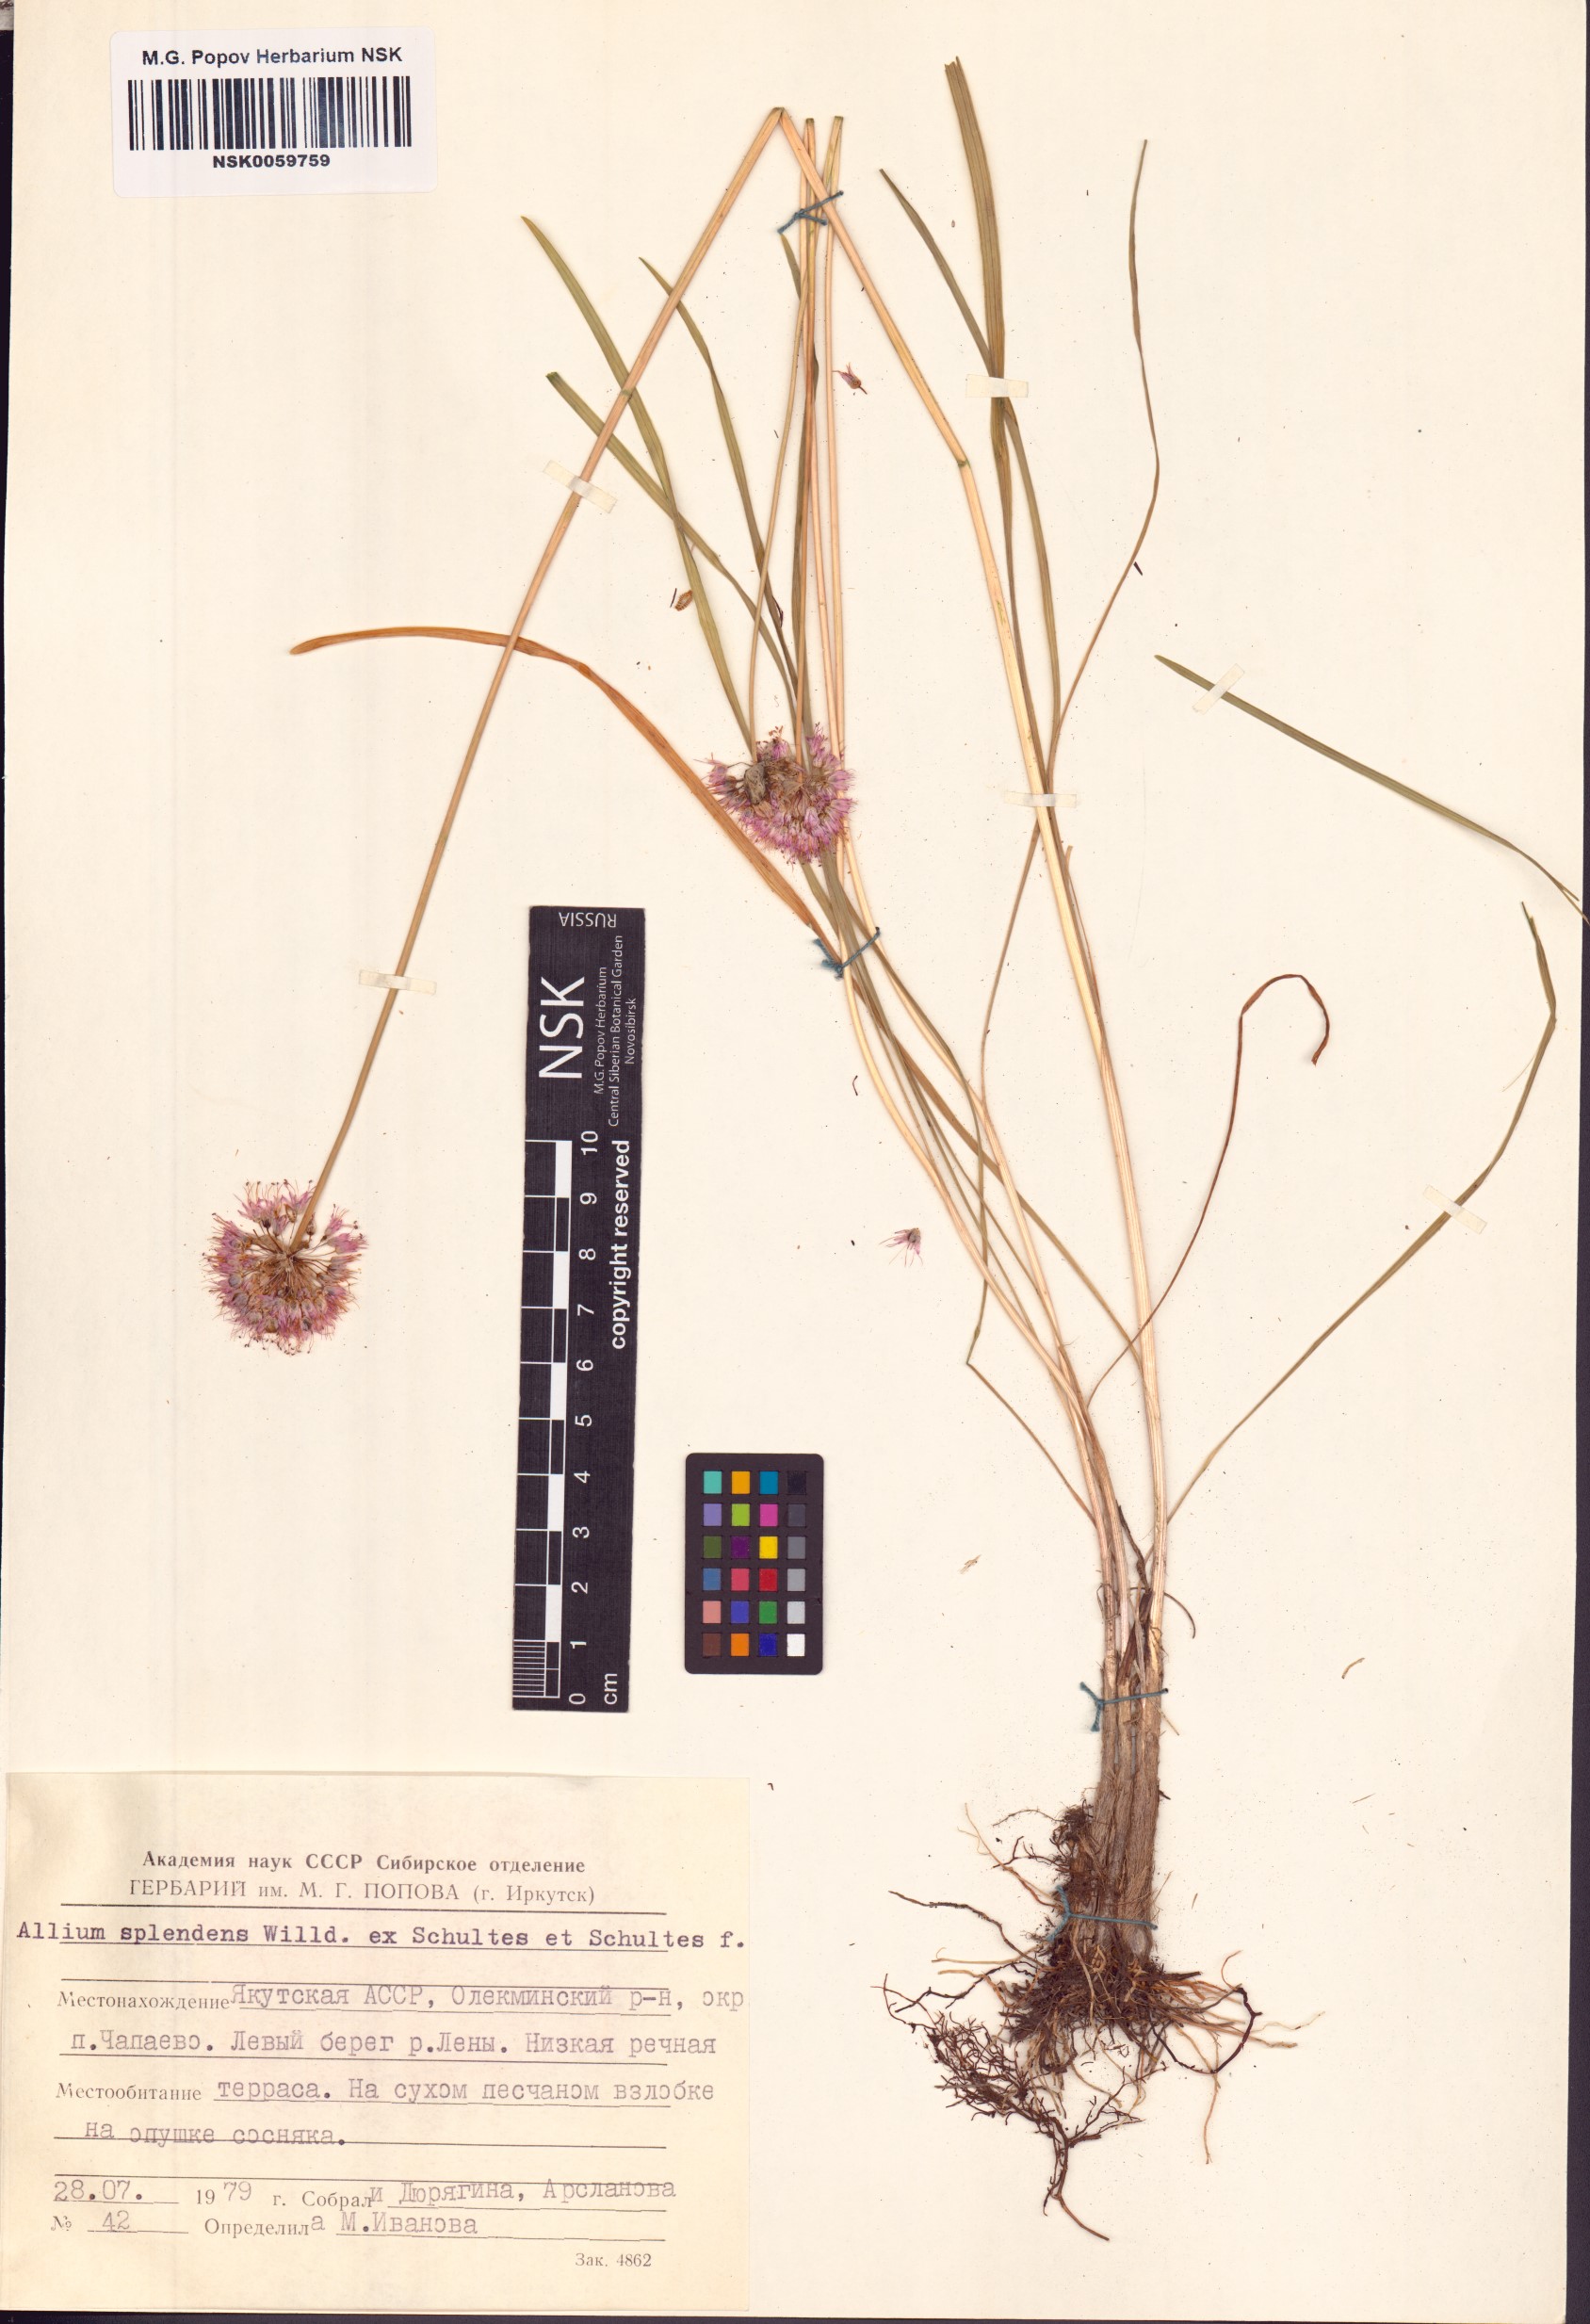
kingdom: Plantae
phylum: Tracheophyta
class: Liliopsida
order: Asparagales
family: Amaryllidaceae
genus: Allium
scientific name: Allium splendens
